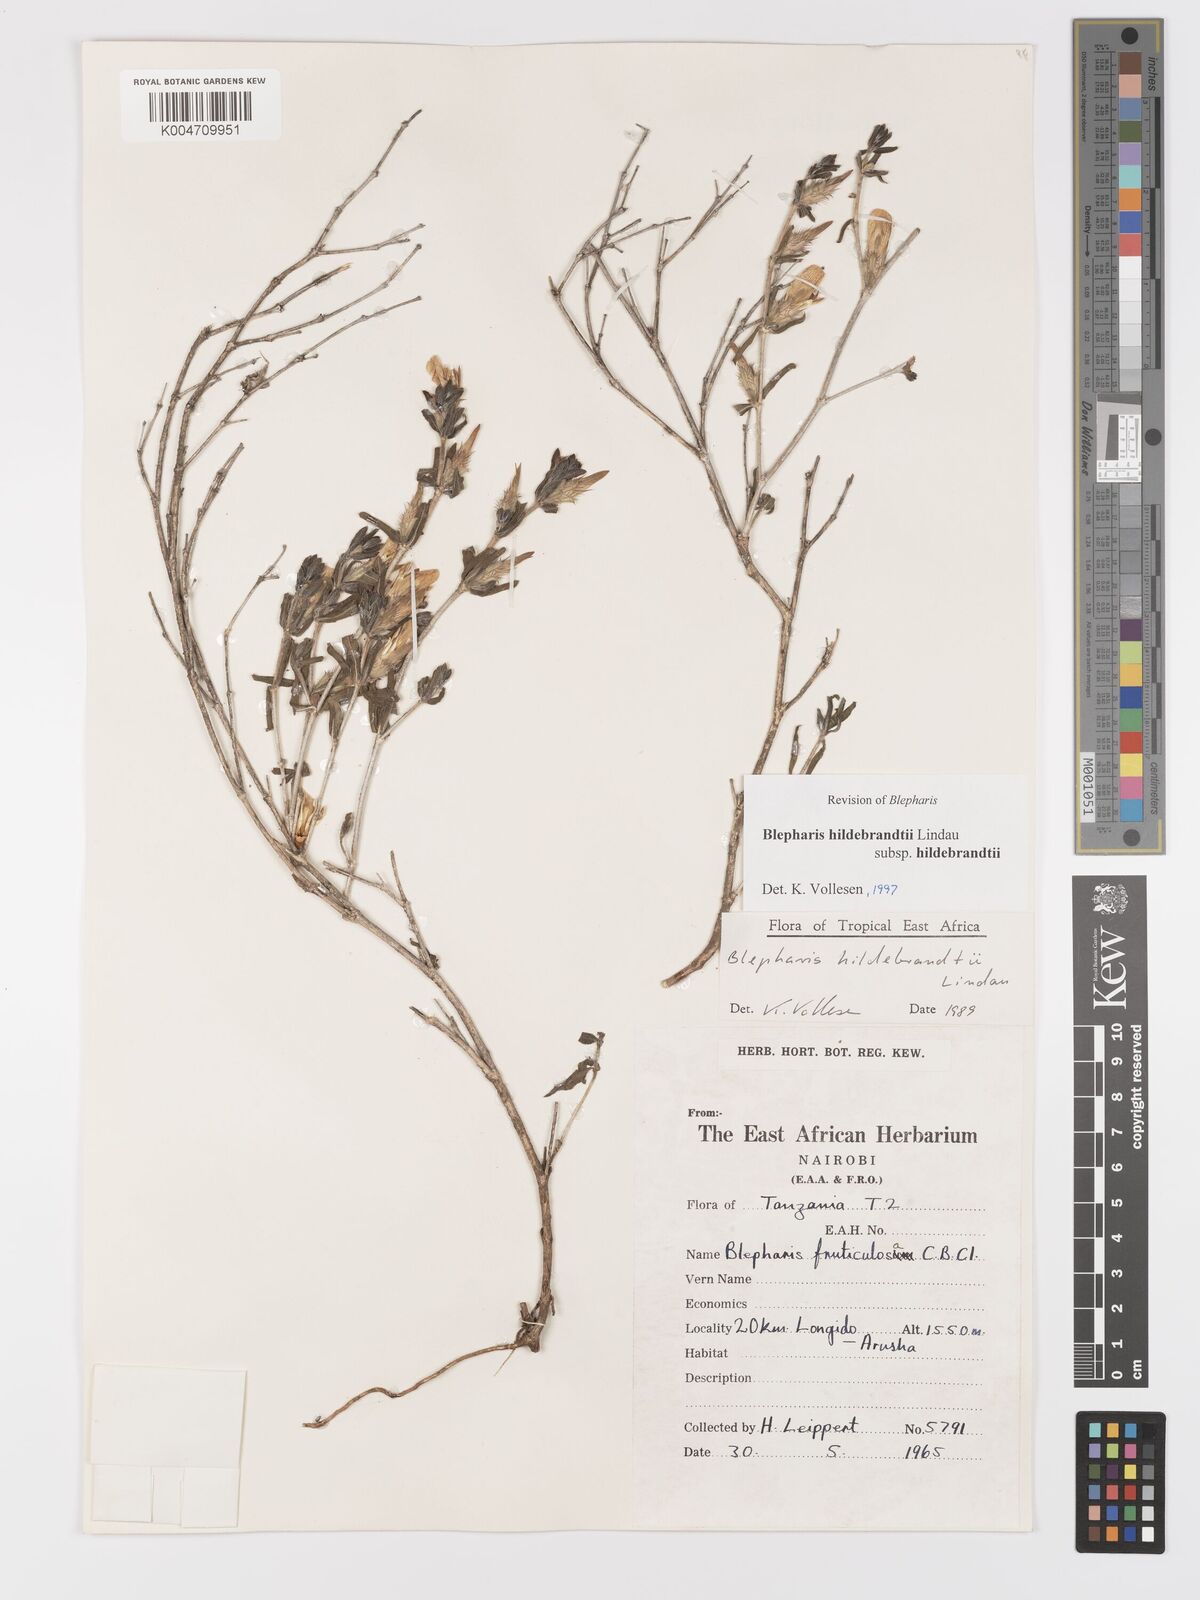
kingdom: Plantae
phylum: Tracheophyta
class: Magnoliopsida
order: Lamiales
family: Acanthaceae
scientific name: Acanthaceae
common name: Acanthaceae
